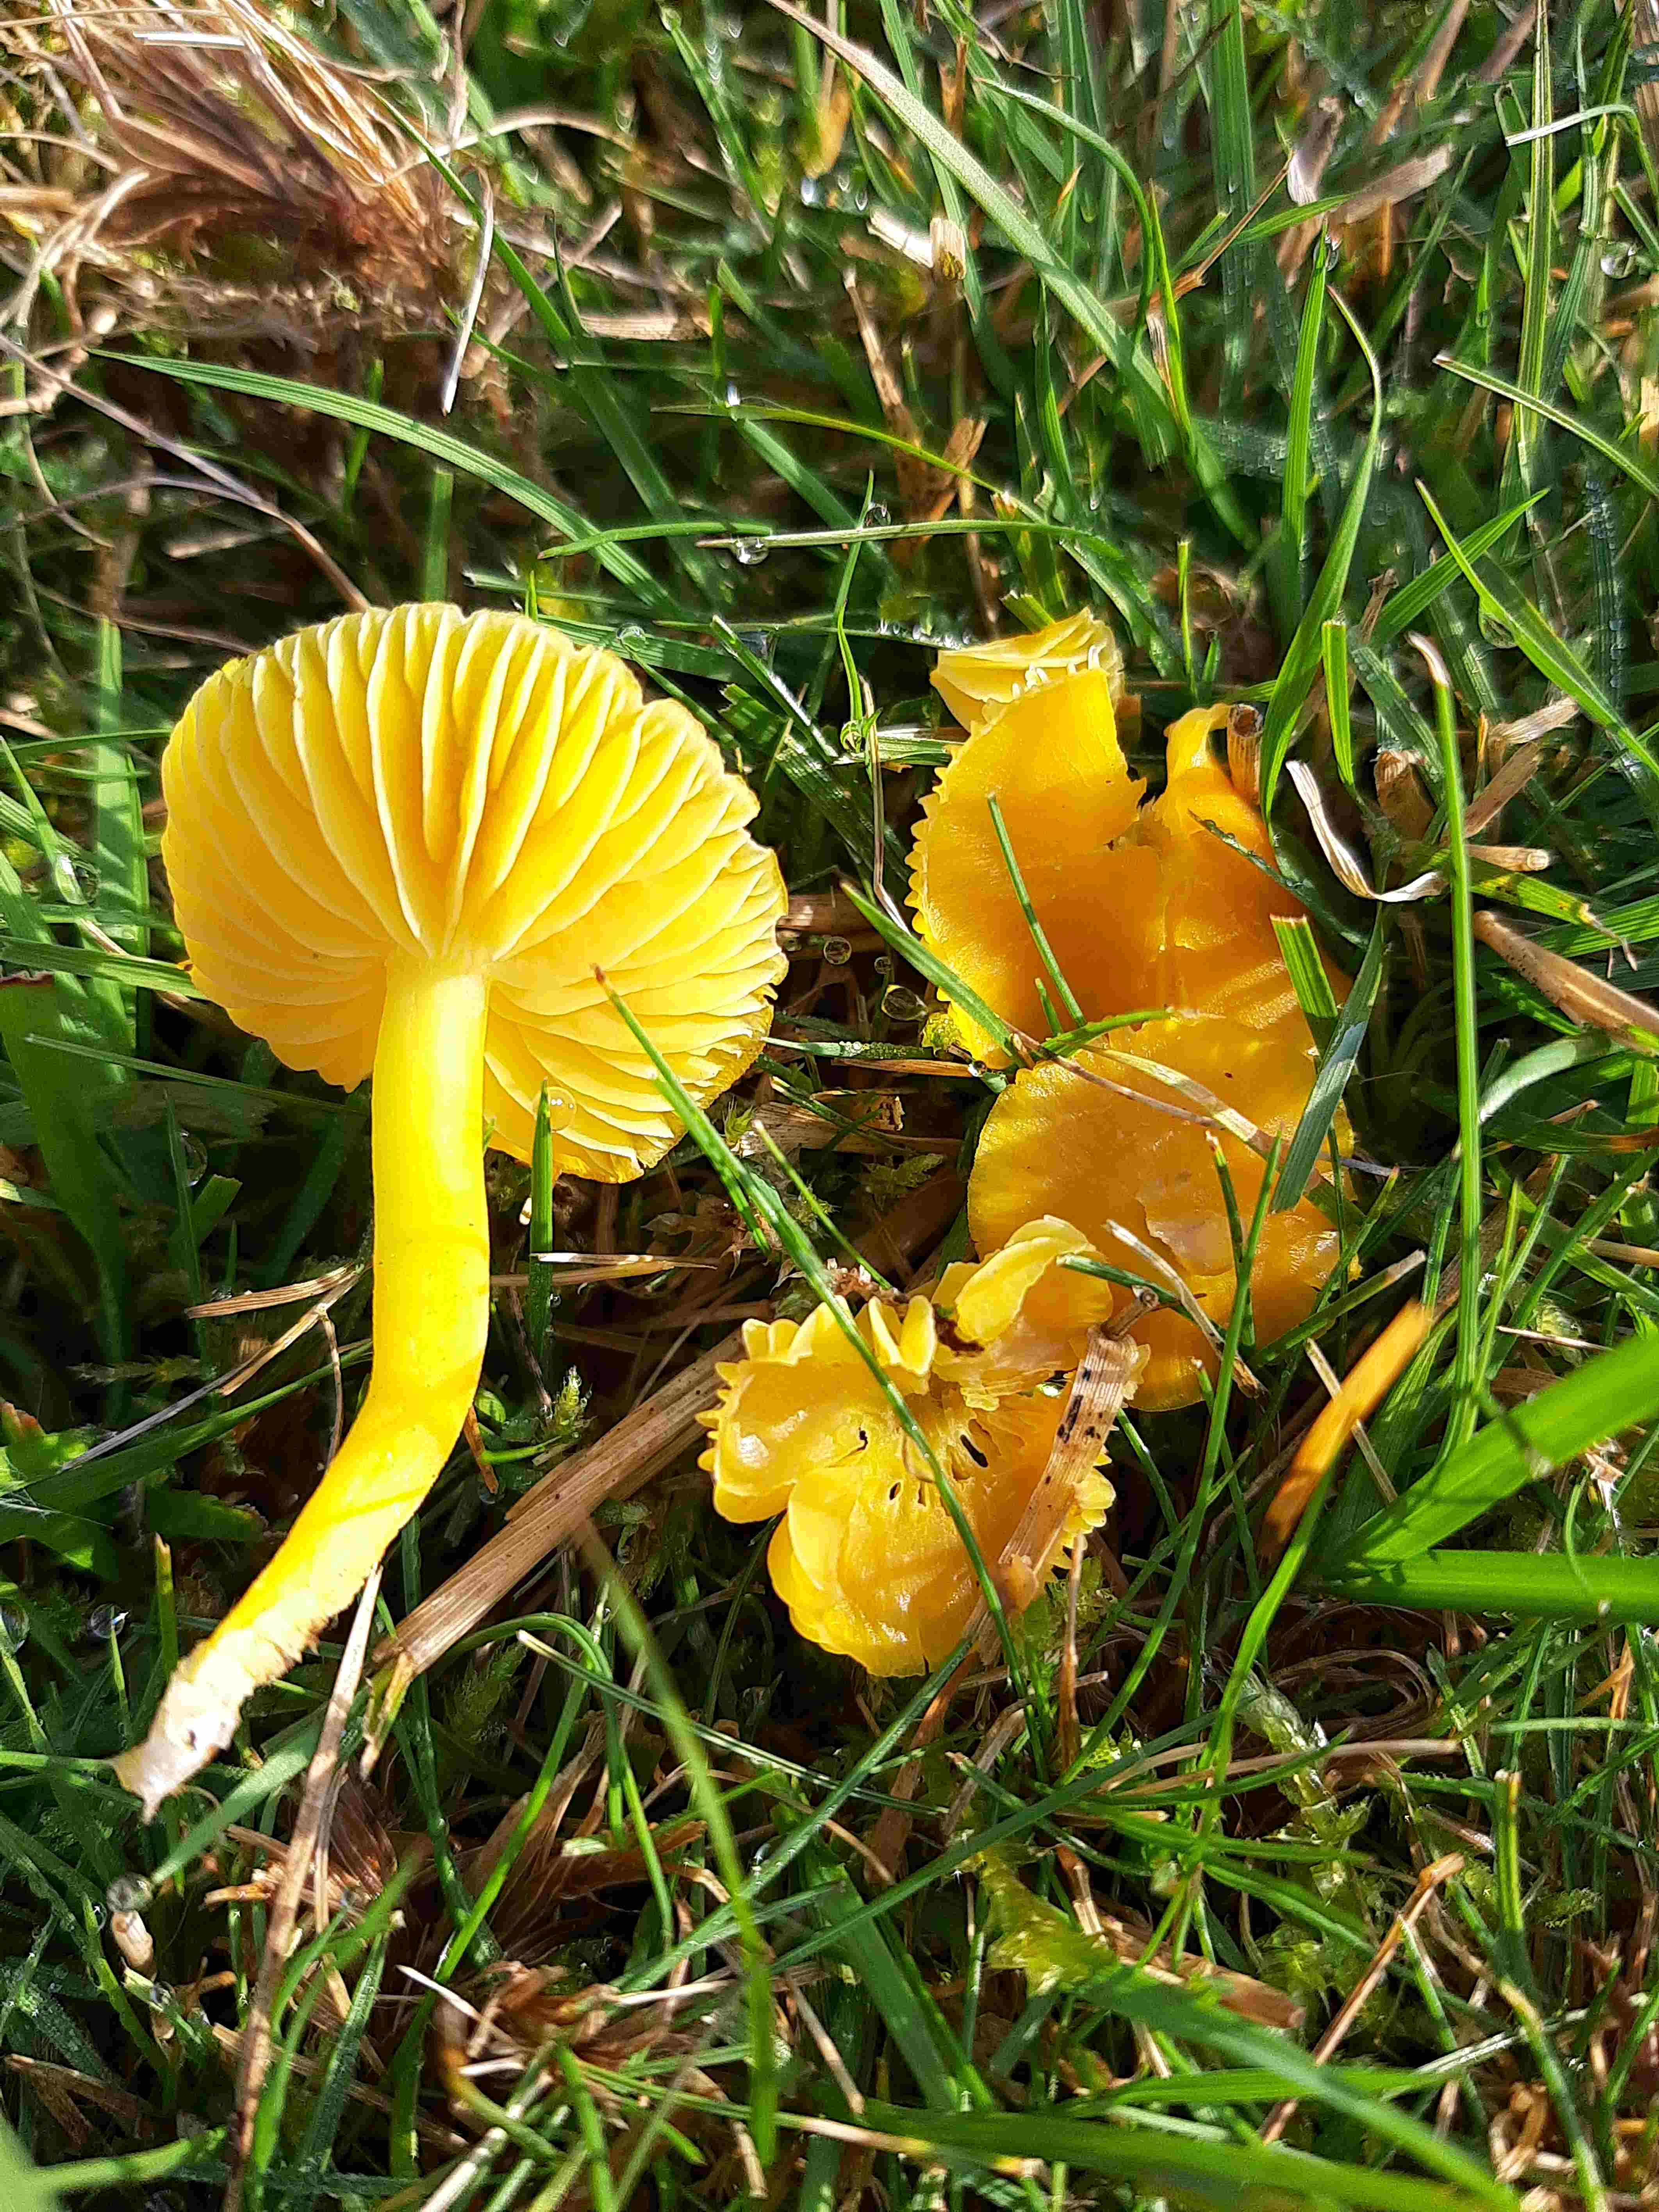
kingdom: Fungi
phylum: Basidiomycota
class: Agaricomycetes
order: Agaricales
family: Hygrophoraceae
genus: Hygrocybe
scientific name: Hygrocybe ceracea
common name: voksgul vokshat
